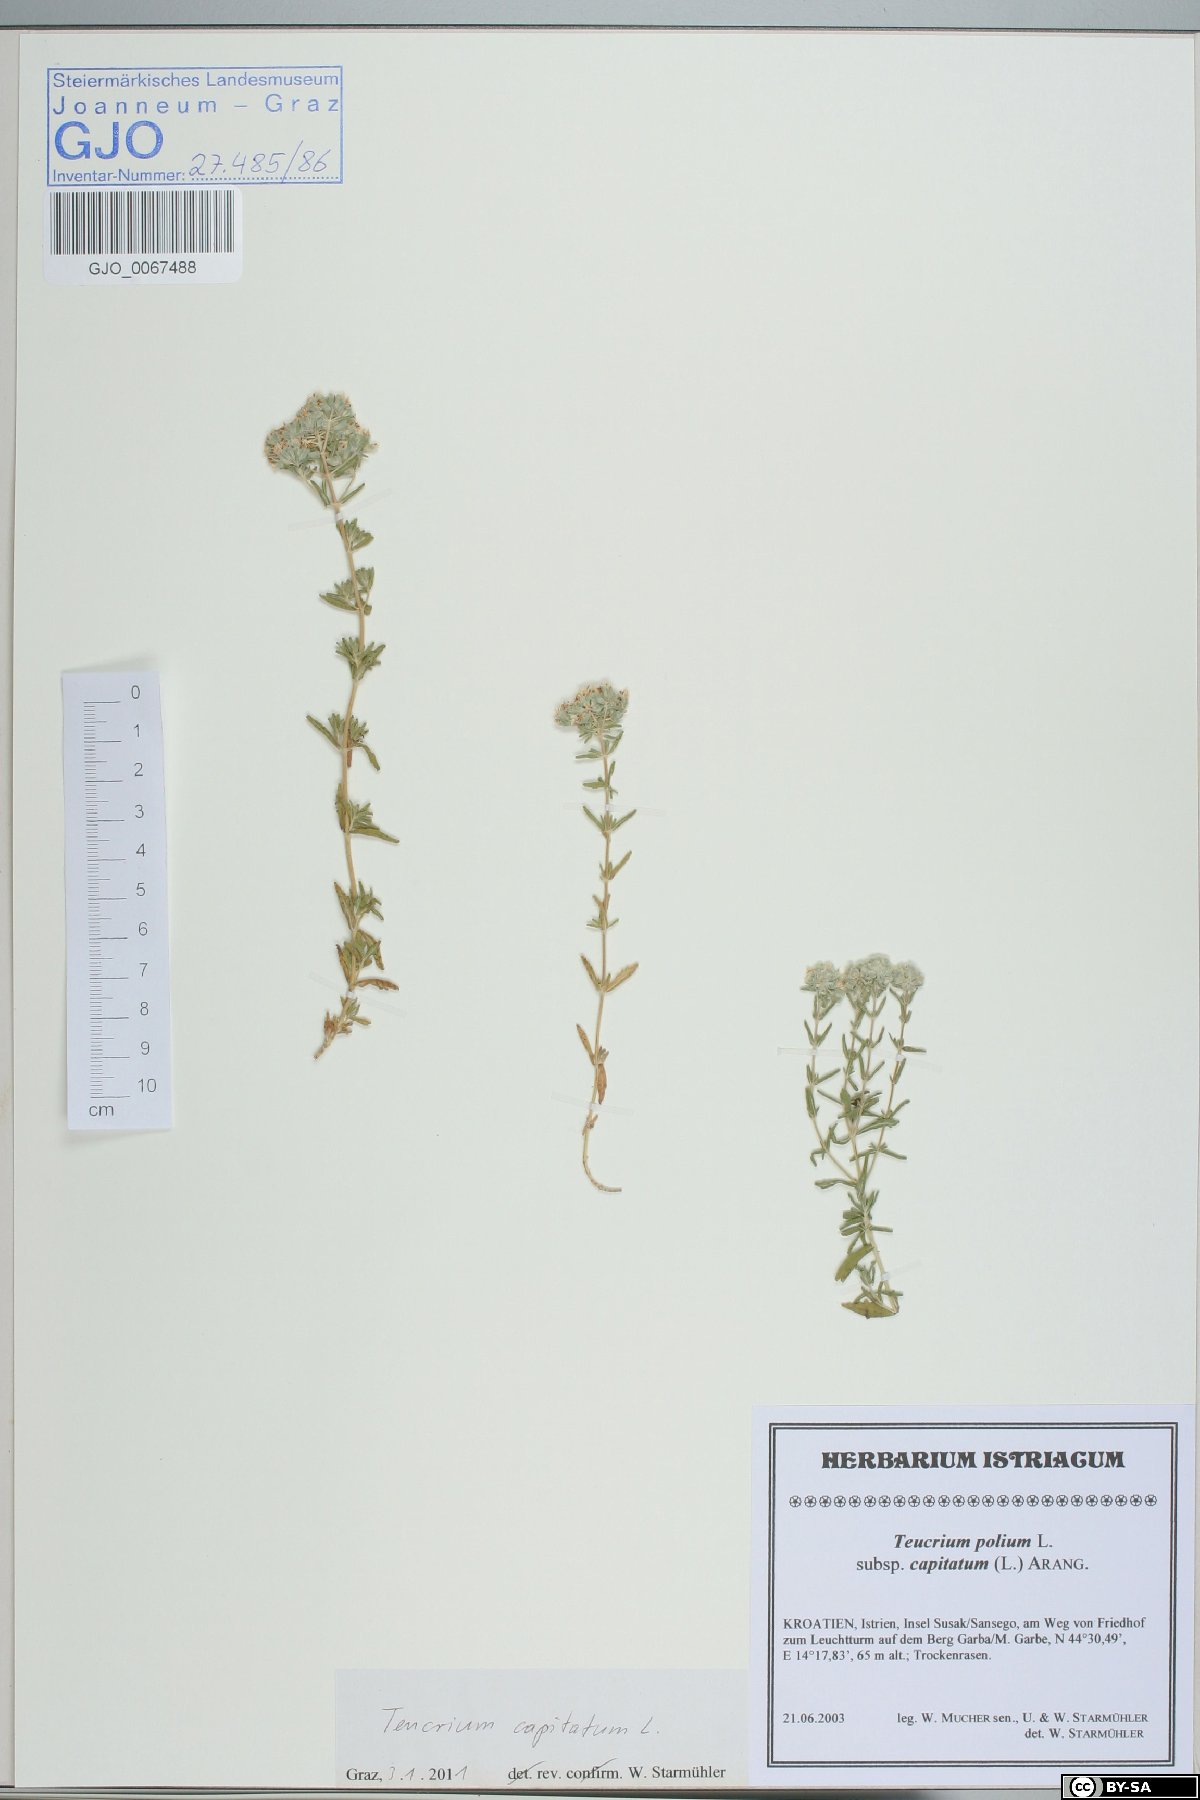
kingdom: Plantae
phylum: Tracheophyta
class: Magnoliopsida
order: Lamiales
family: Lamiaceae
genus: Teucrium
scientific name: Teucrium capitatum
